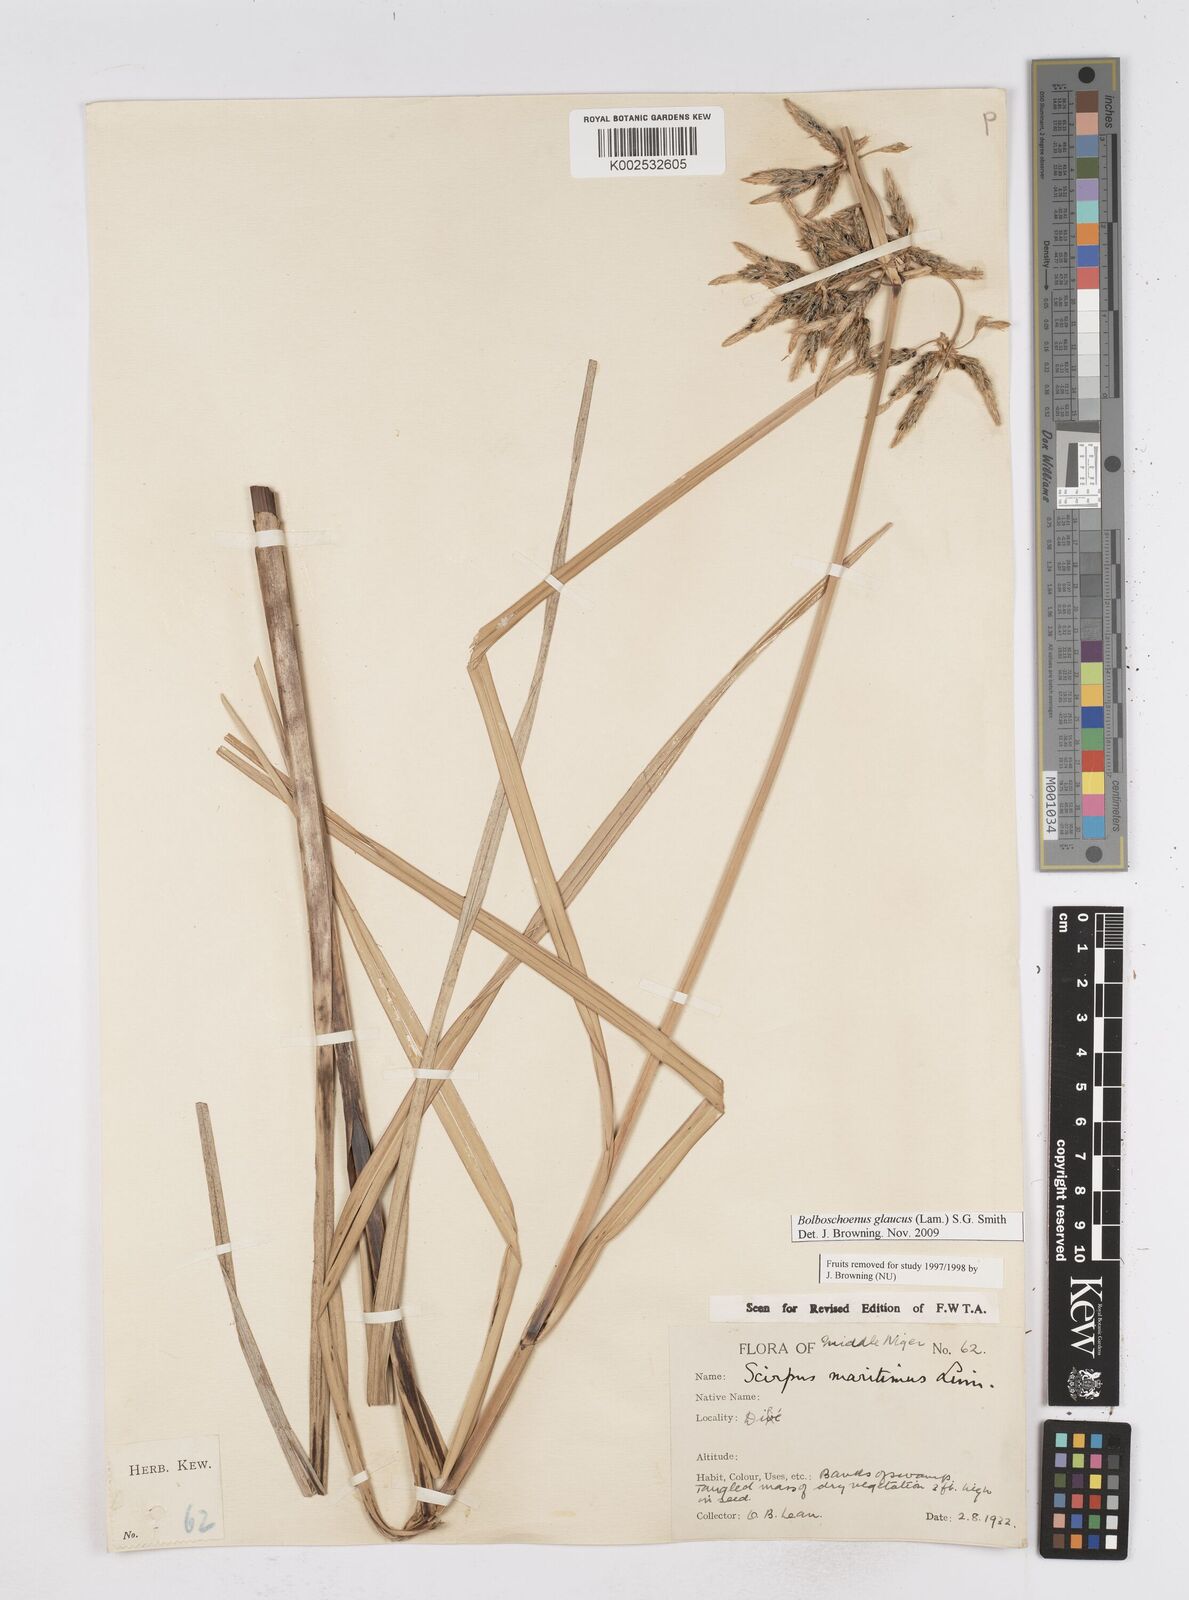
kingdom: Plantae
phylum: Tracheophyta
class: Liliopsida
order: Poales
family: Cyperaceae
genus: Bolboschoenus
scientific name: Bolboschoenus glaucus
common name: Tuberous bulrush
